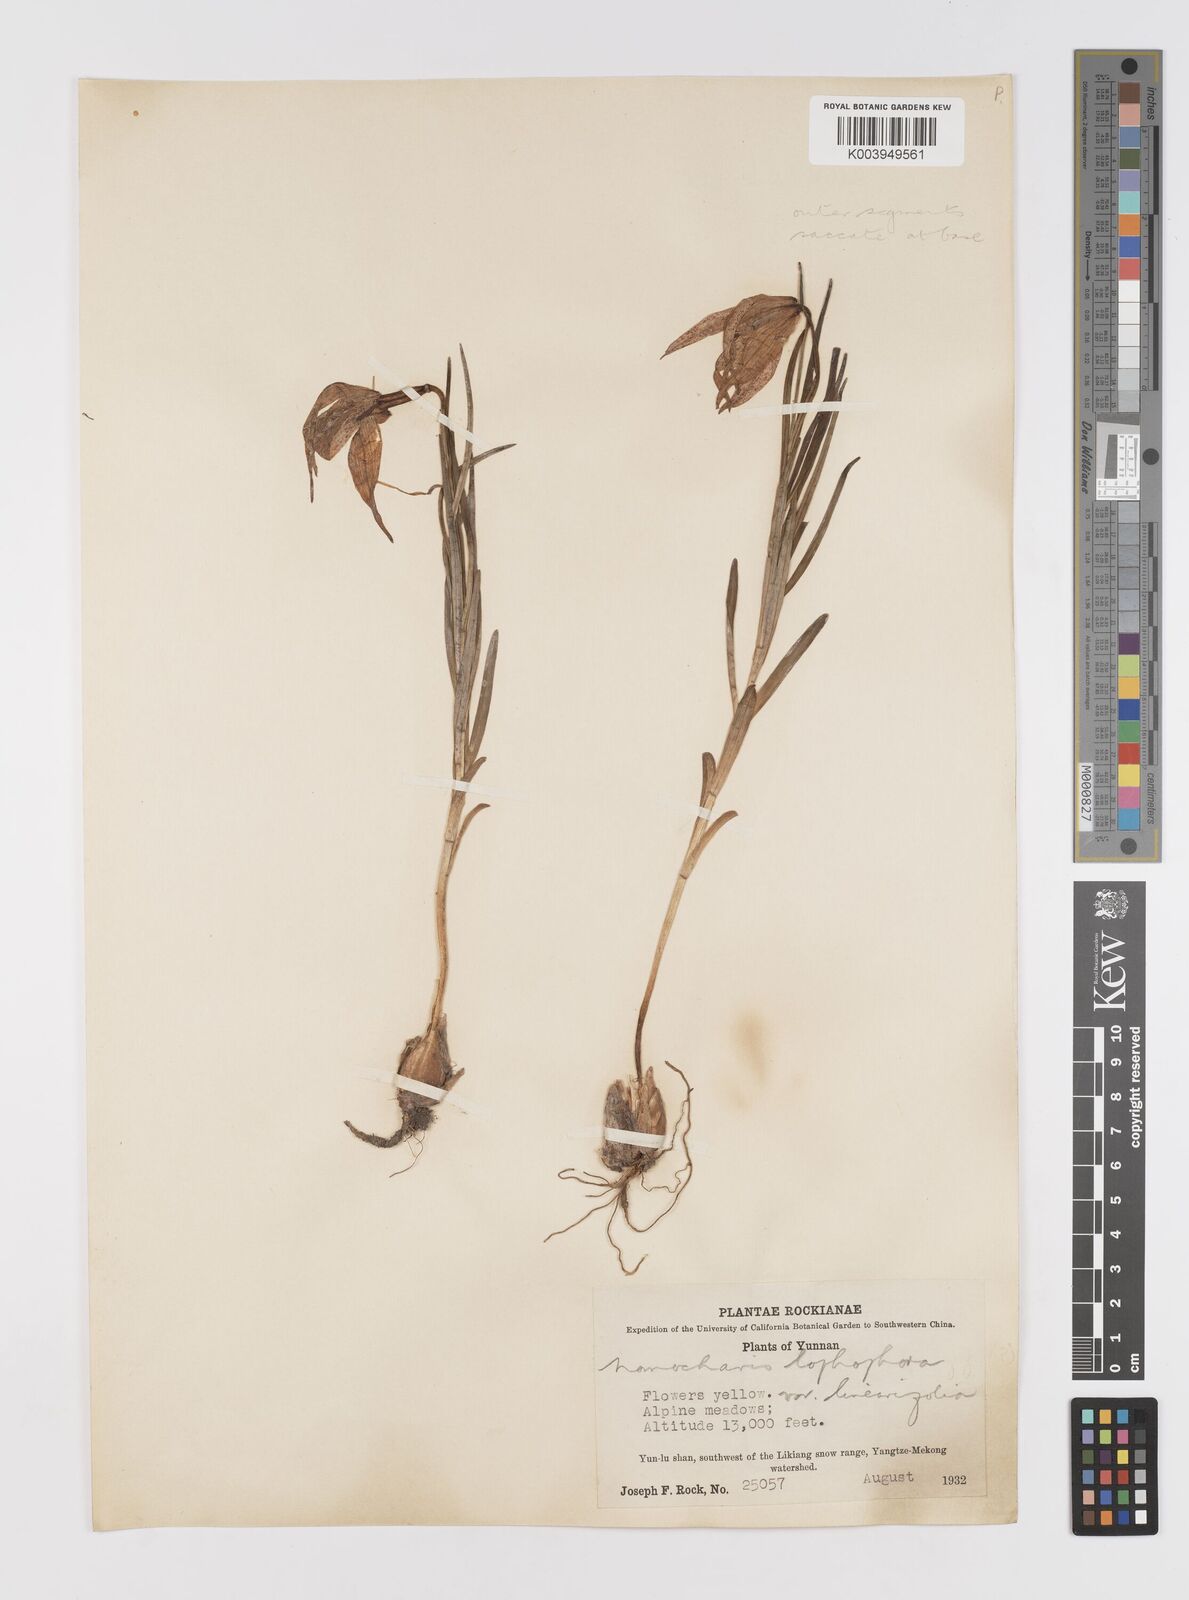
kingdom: Plantae
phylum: Tracheophyta
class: Liliopsida
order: Liliales
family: Liliaceae
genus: Lilium
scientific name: Lilium lophophorum
